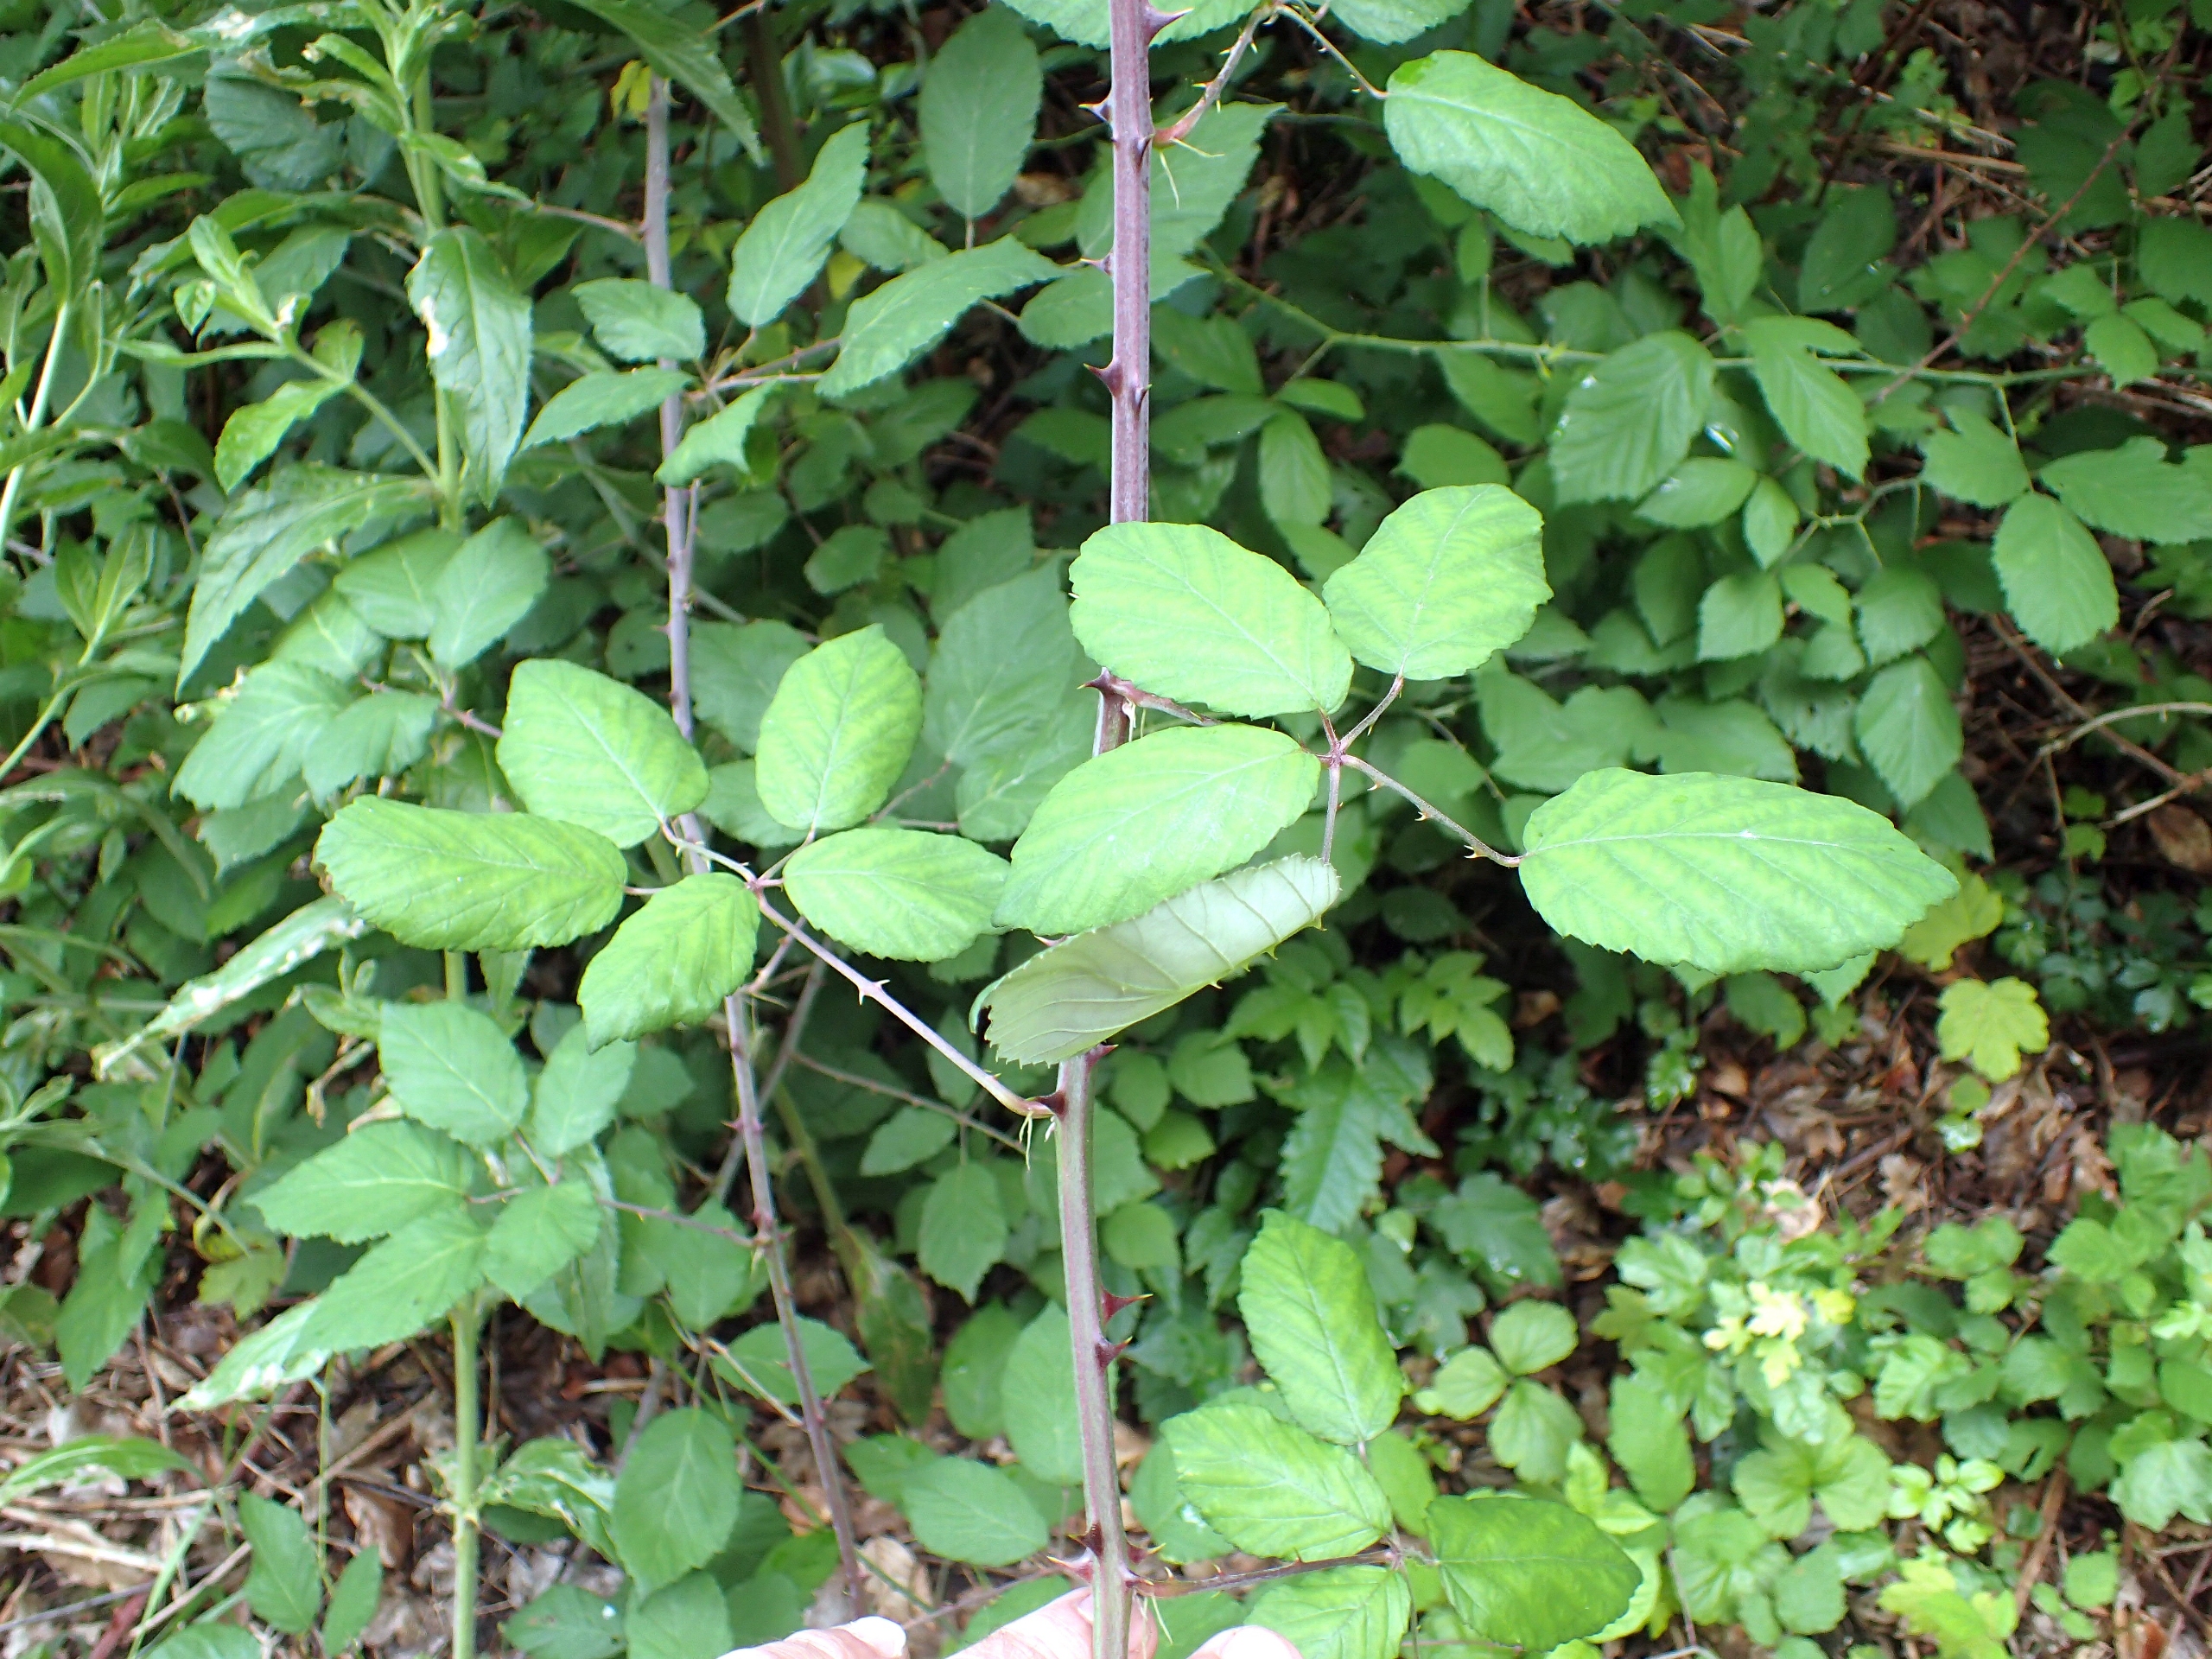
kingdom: Plantae
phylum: Tracheophyta
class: Magnoliopsida
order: Rosales
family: Rosaceae
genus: Rubus
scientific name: Rubus ulmifolius
